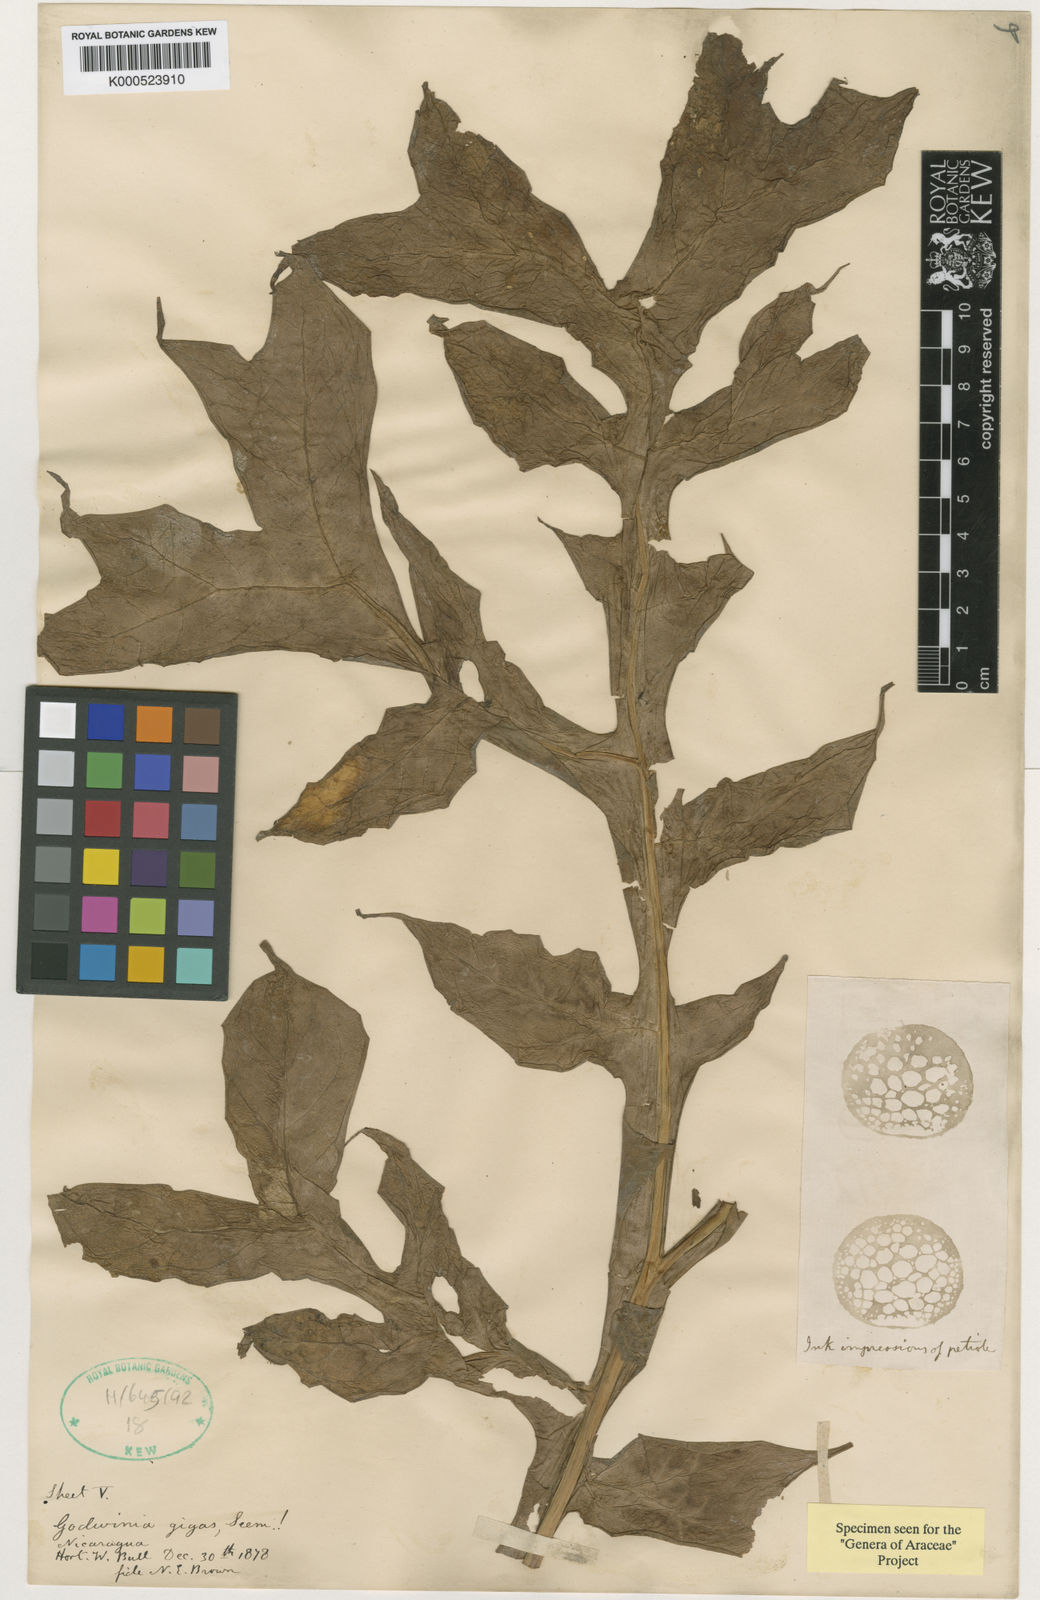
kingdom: Plantae
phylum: Tracheophyta
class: Liliopsida
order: Alismatales
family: Araceae
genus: Dracontium
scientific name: Dracontium gigas
